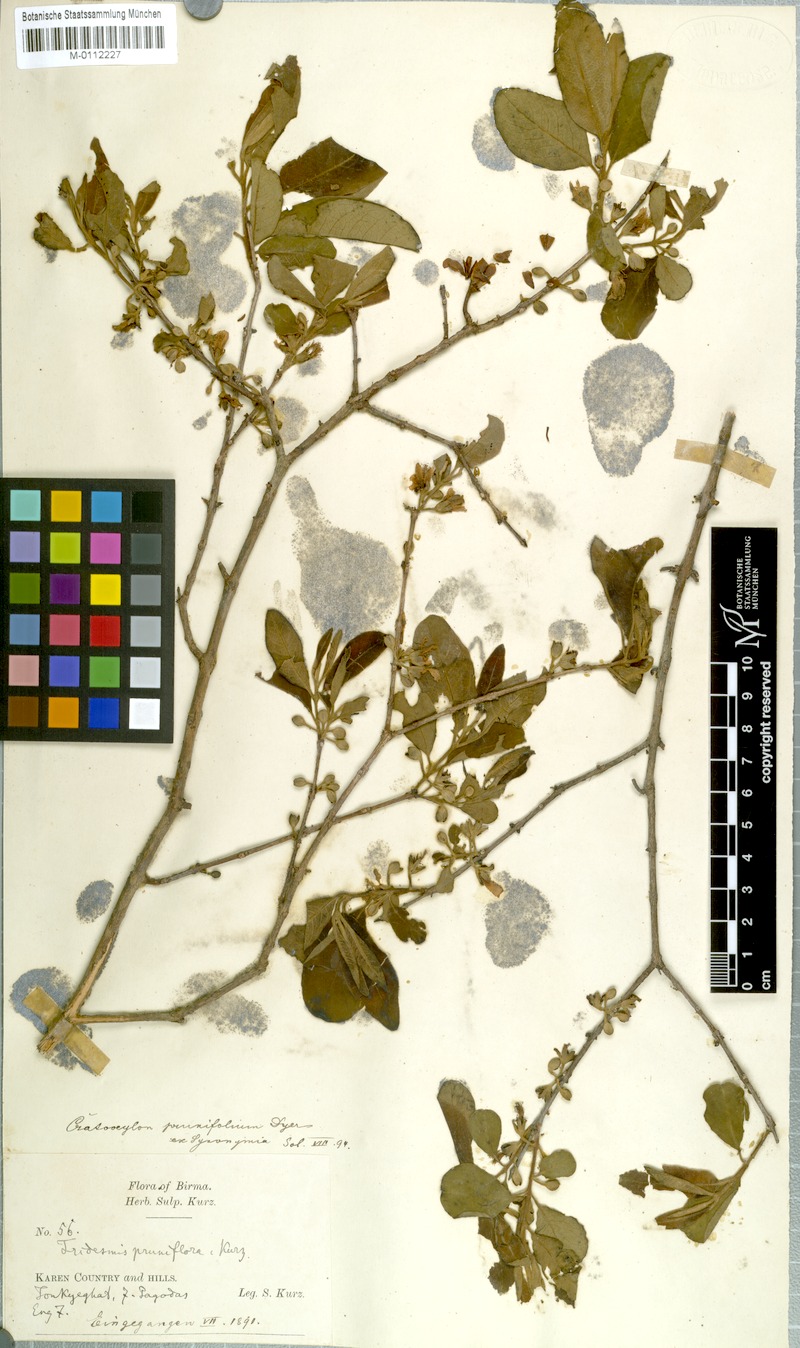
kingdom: Plantae
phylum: Tracheophyta
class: Magnoliopsida
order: Malpighiales
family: Hypericaceae
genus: Cratoxylum
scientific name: Cratoxylum formosum
